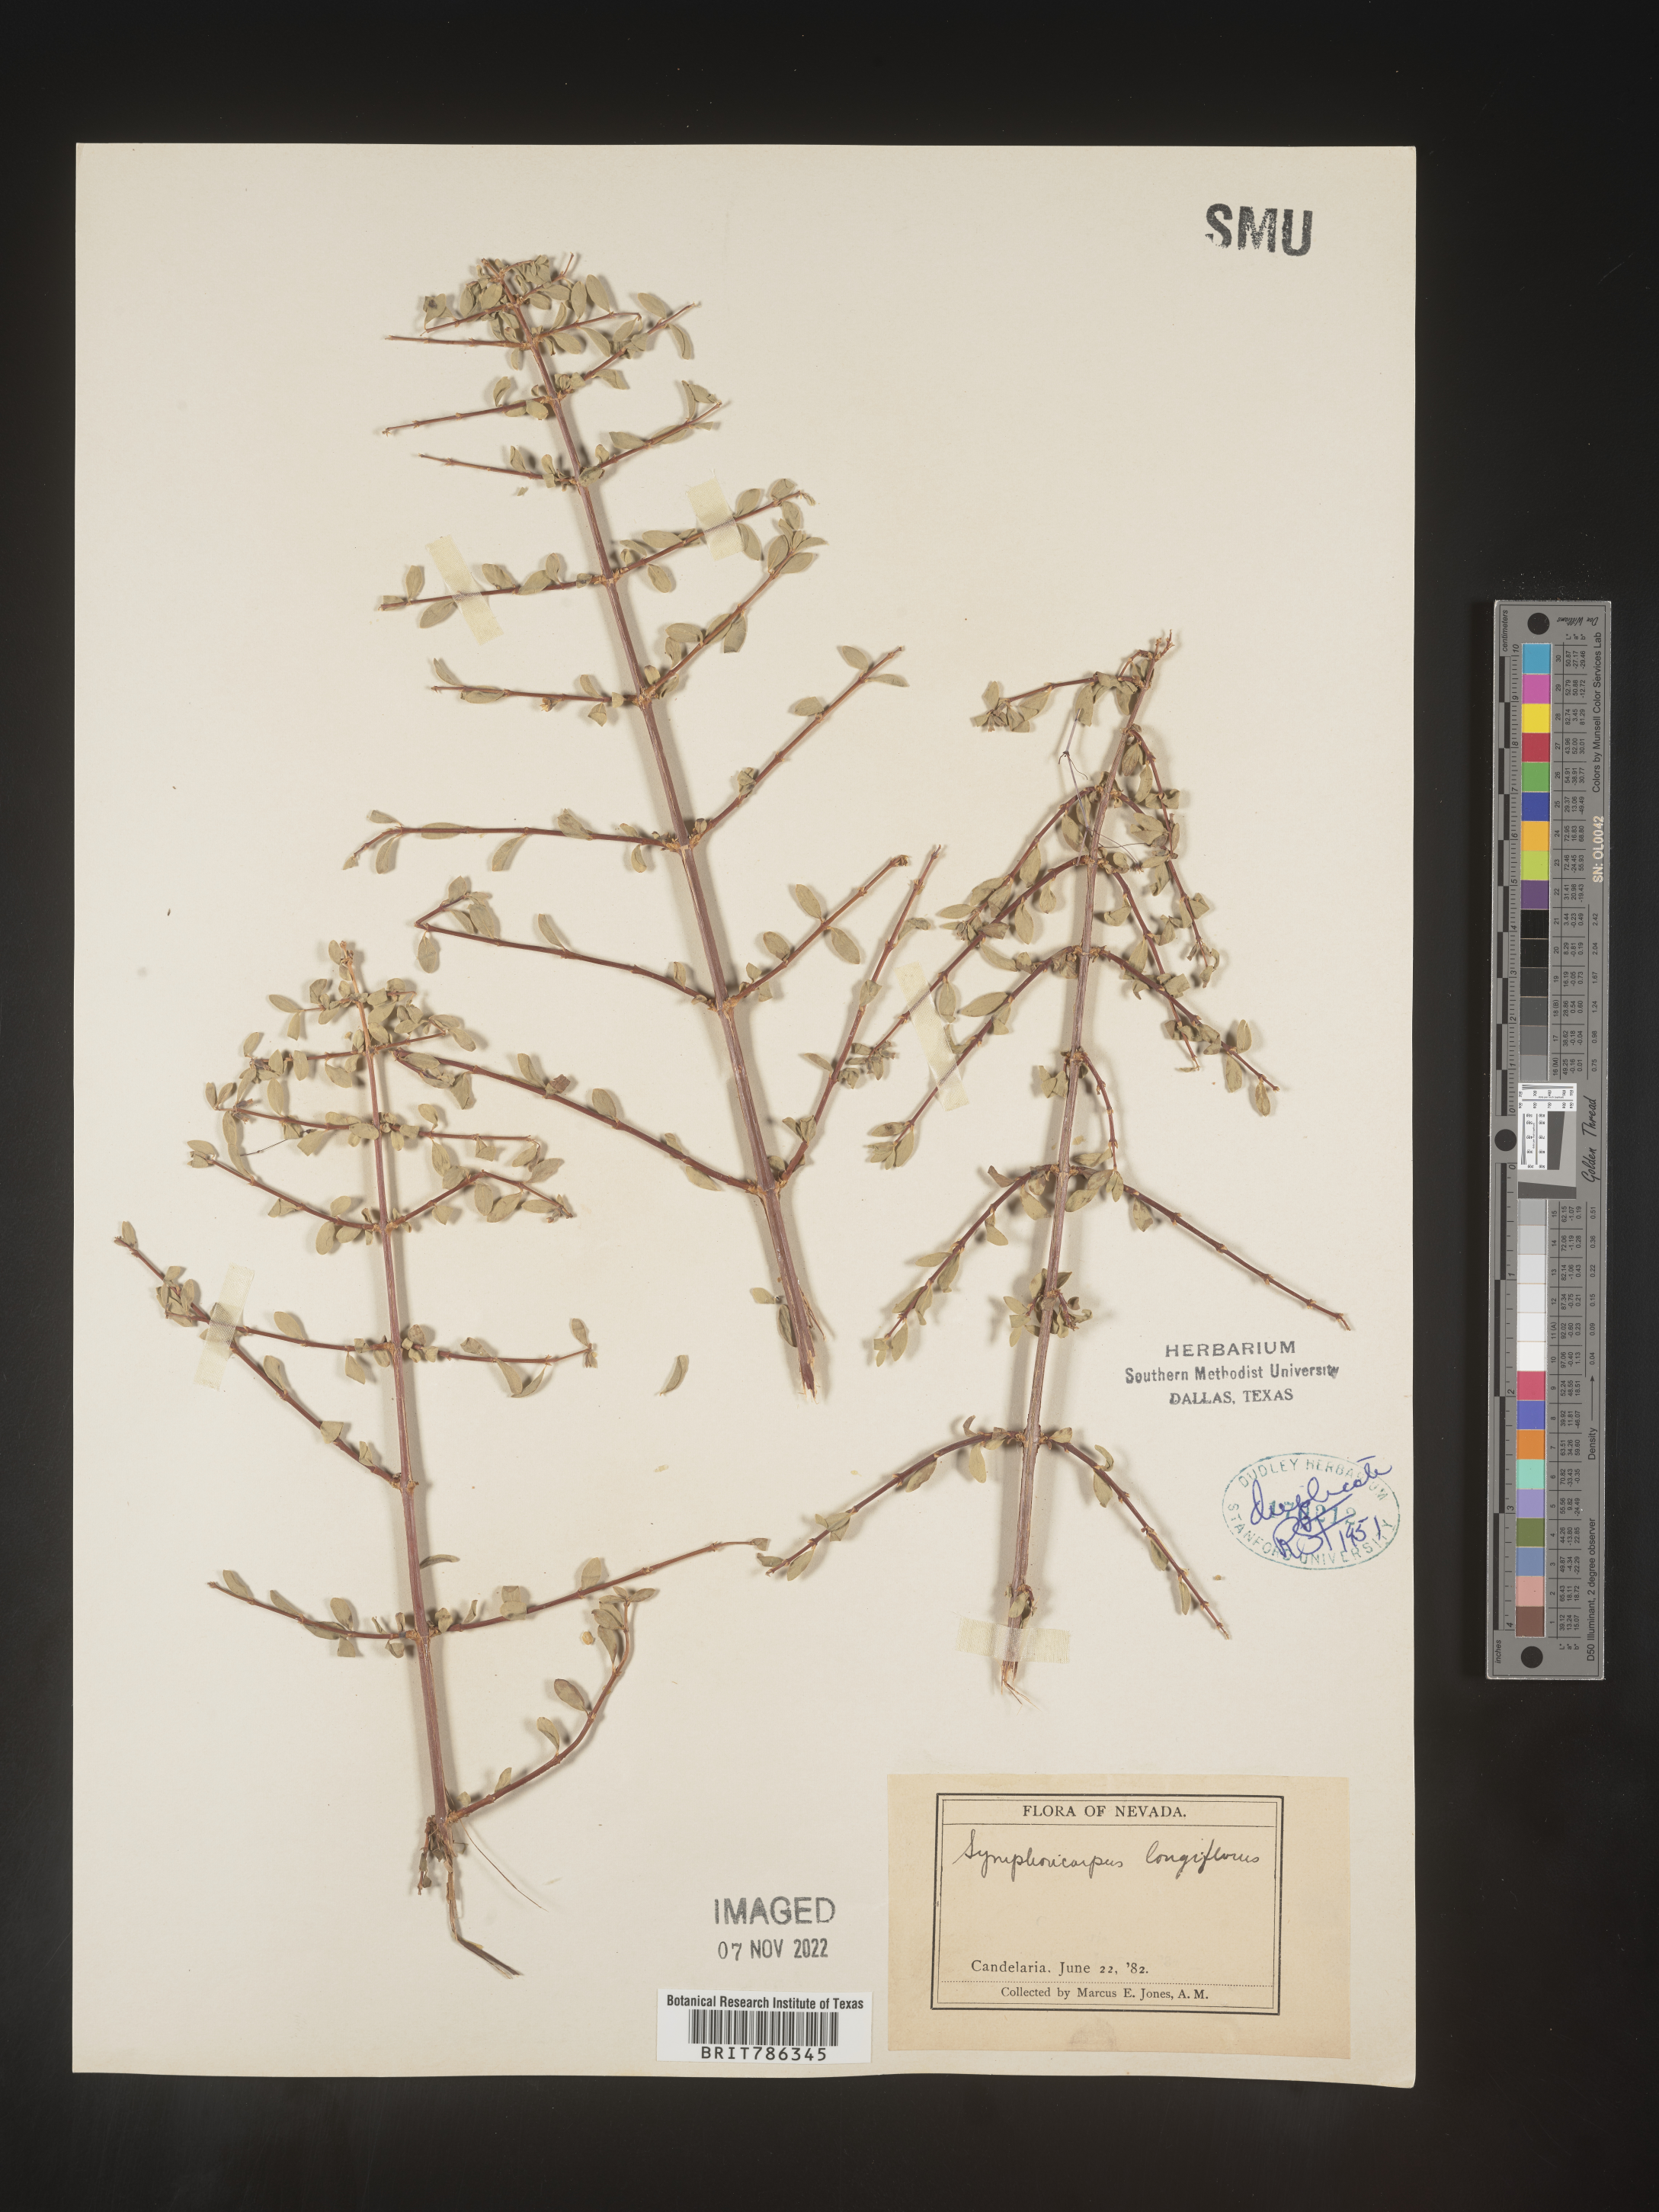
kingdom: Plantae
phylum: Tracheophyta
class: Magnoliopsida
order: Dipsacales
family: Caprifoliaceae
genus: Symphoricarpos
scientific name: Symphoricarpos
